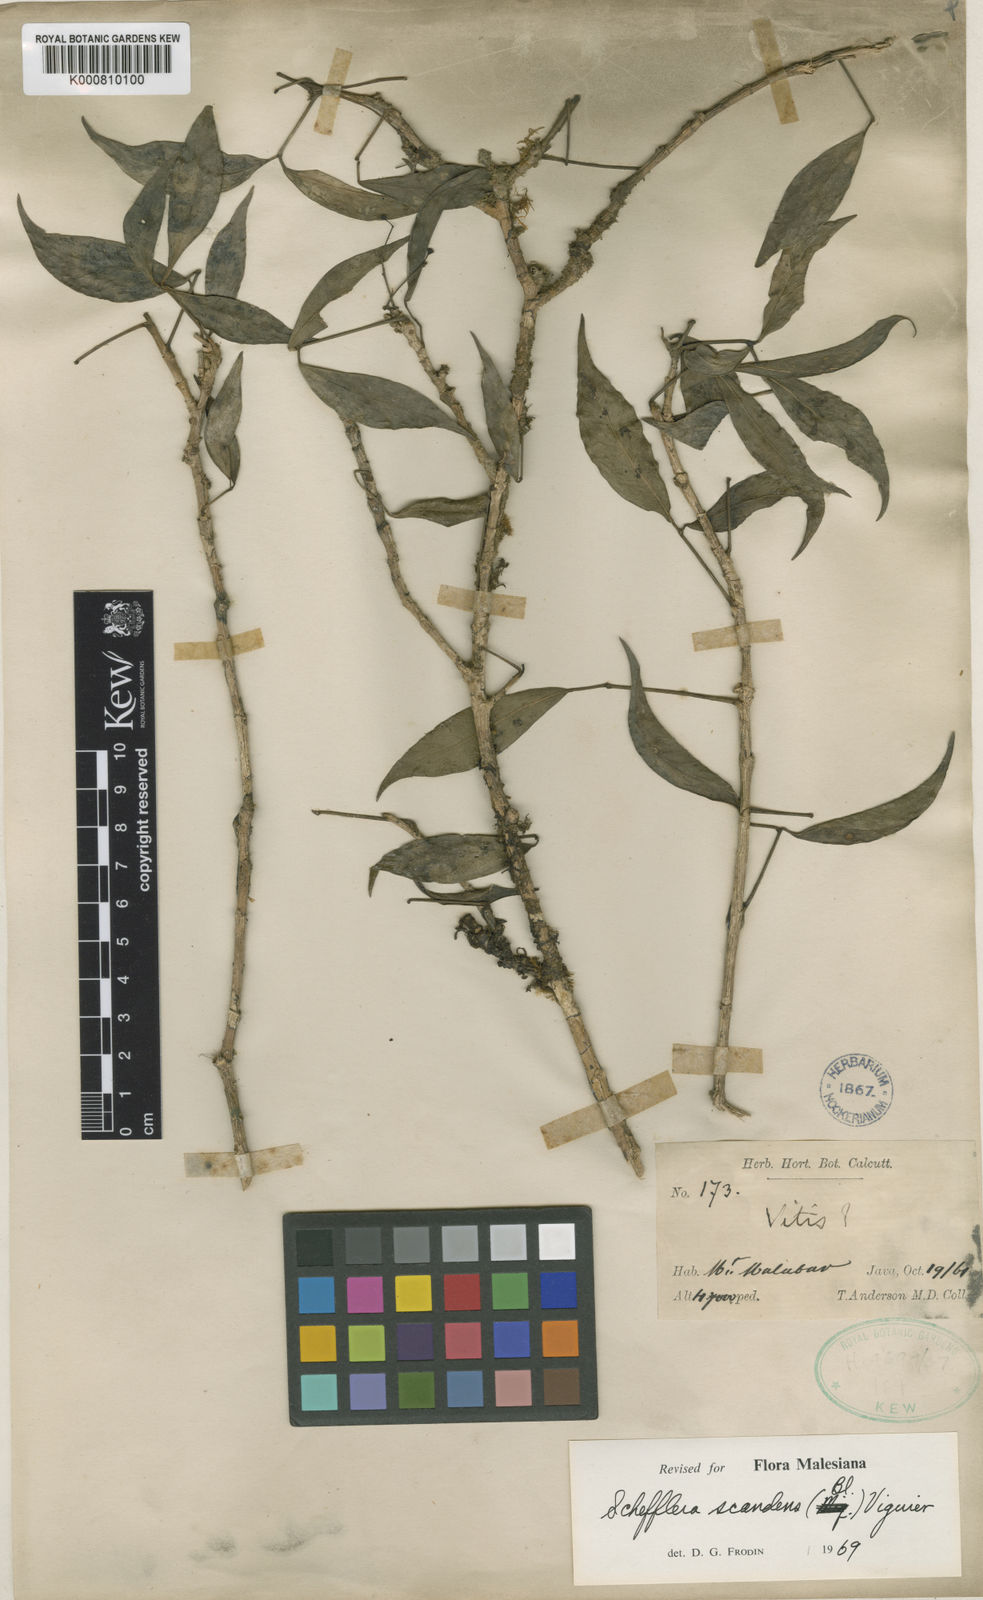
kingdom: Plantae
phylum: Tracheophyta
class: Magnoliopsida
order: Apiales
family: Araliaceae
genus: Heptapleurum
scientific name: Heptapleurum scandens
